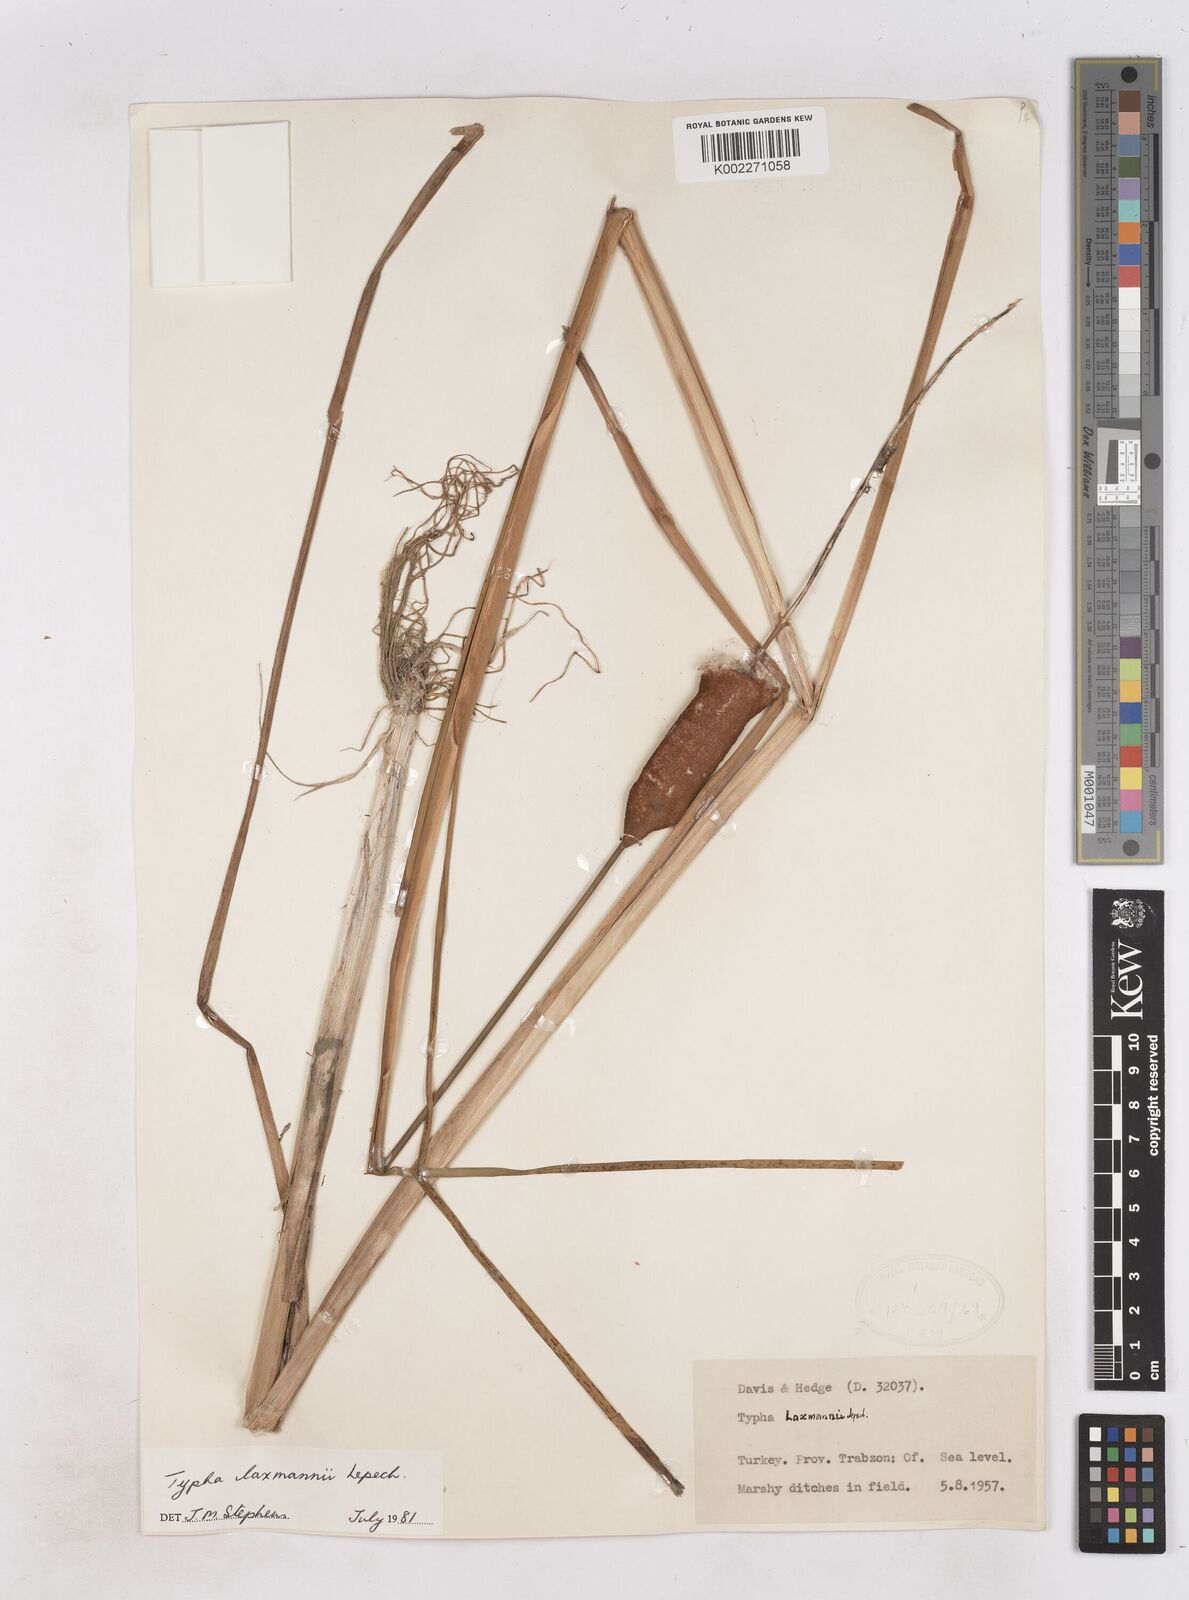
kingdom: Plantae
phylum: Tracheophyta
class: Liliopsida
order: Poales
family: Typhaceae
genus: Typha
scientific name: Typha laxmannii
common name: Laxman’s bulrush
